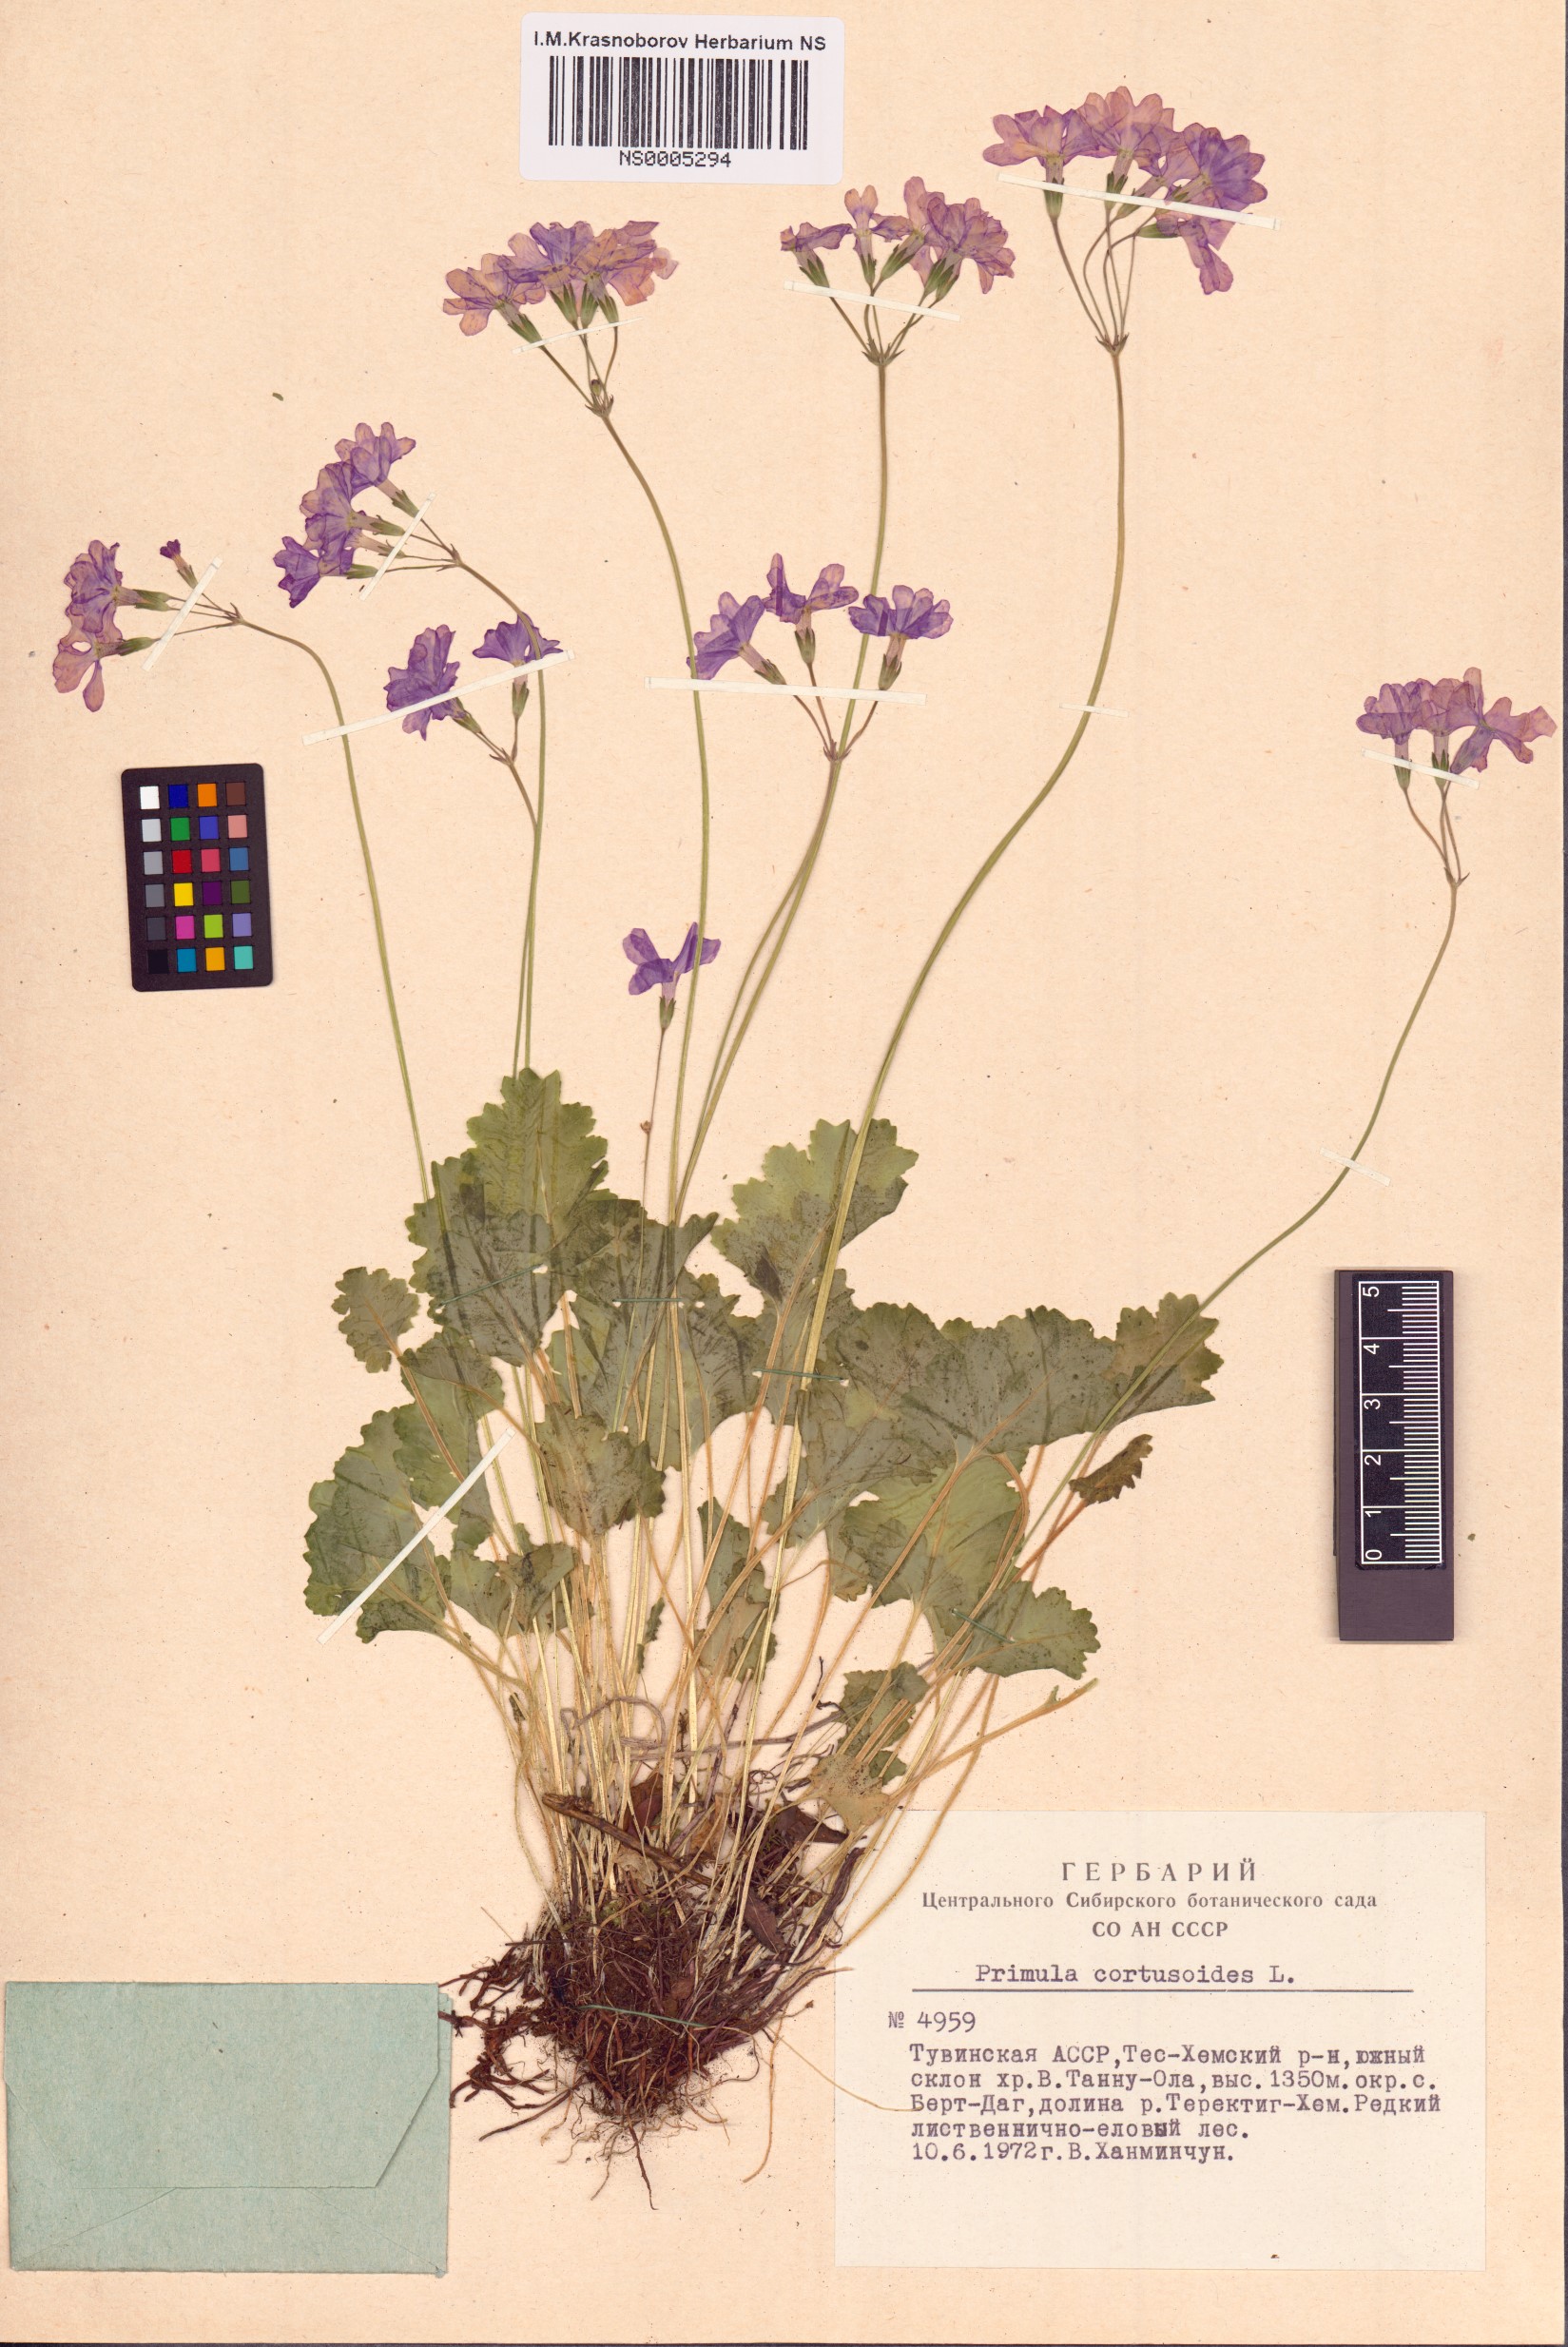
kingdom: Plantae
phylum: Tracheophyta
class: Magnoliopsida
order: Ericales
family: Primulaceae
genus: Primula
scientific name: Primula cortusoides
